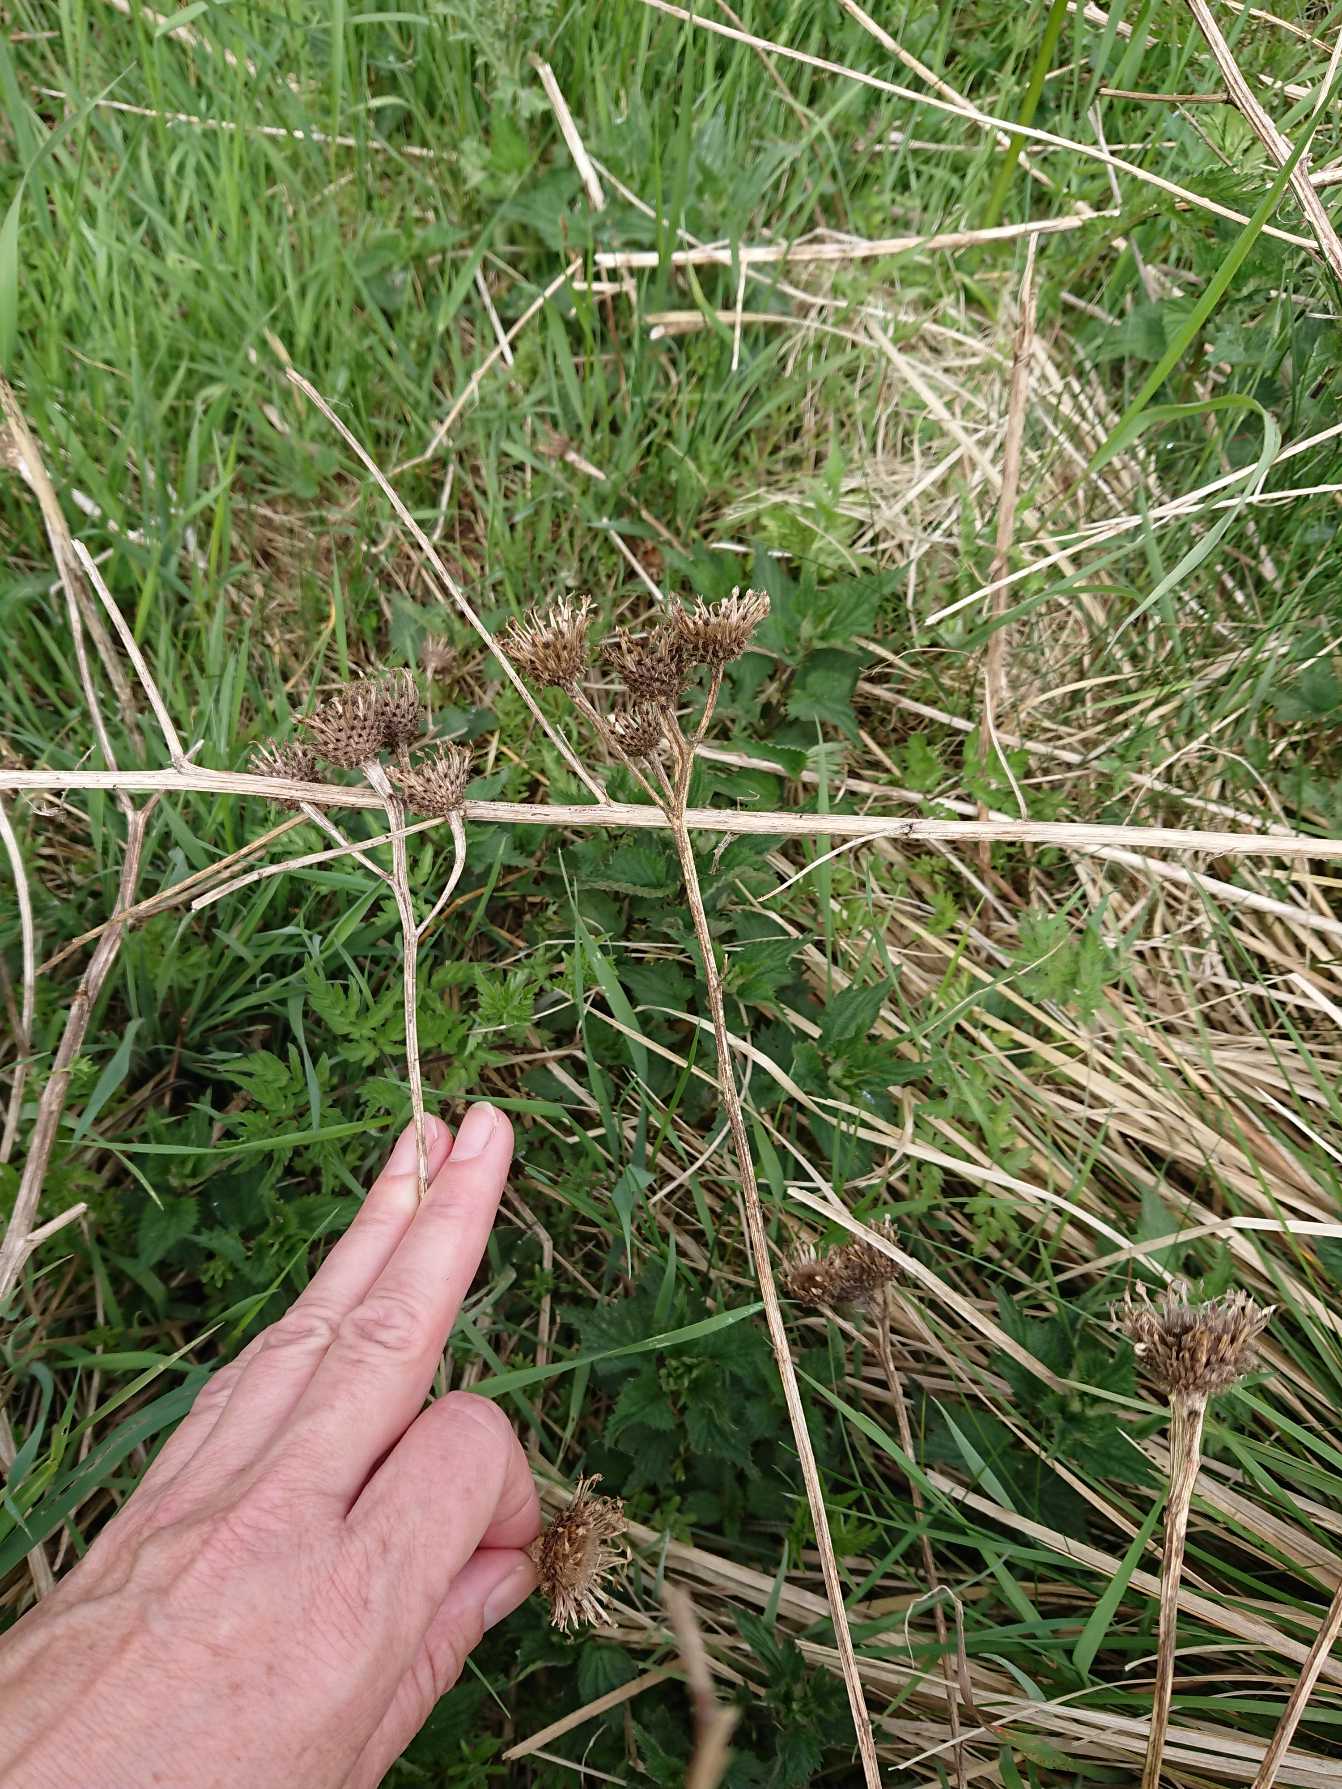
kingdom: Plantae
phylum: Tracheophyta
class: Magnoliopsida
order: Asterales
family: Asteraceae
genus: Centaurea
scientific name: Centaurea pseudophrygia
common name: Fjer-knopurt
